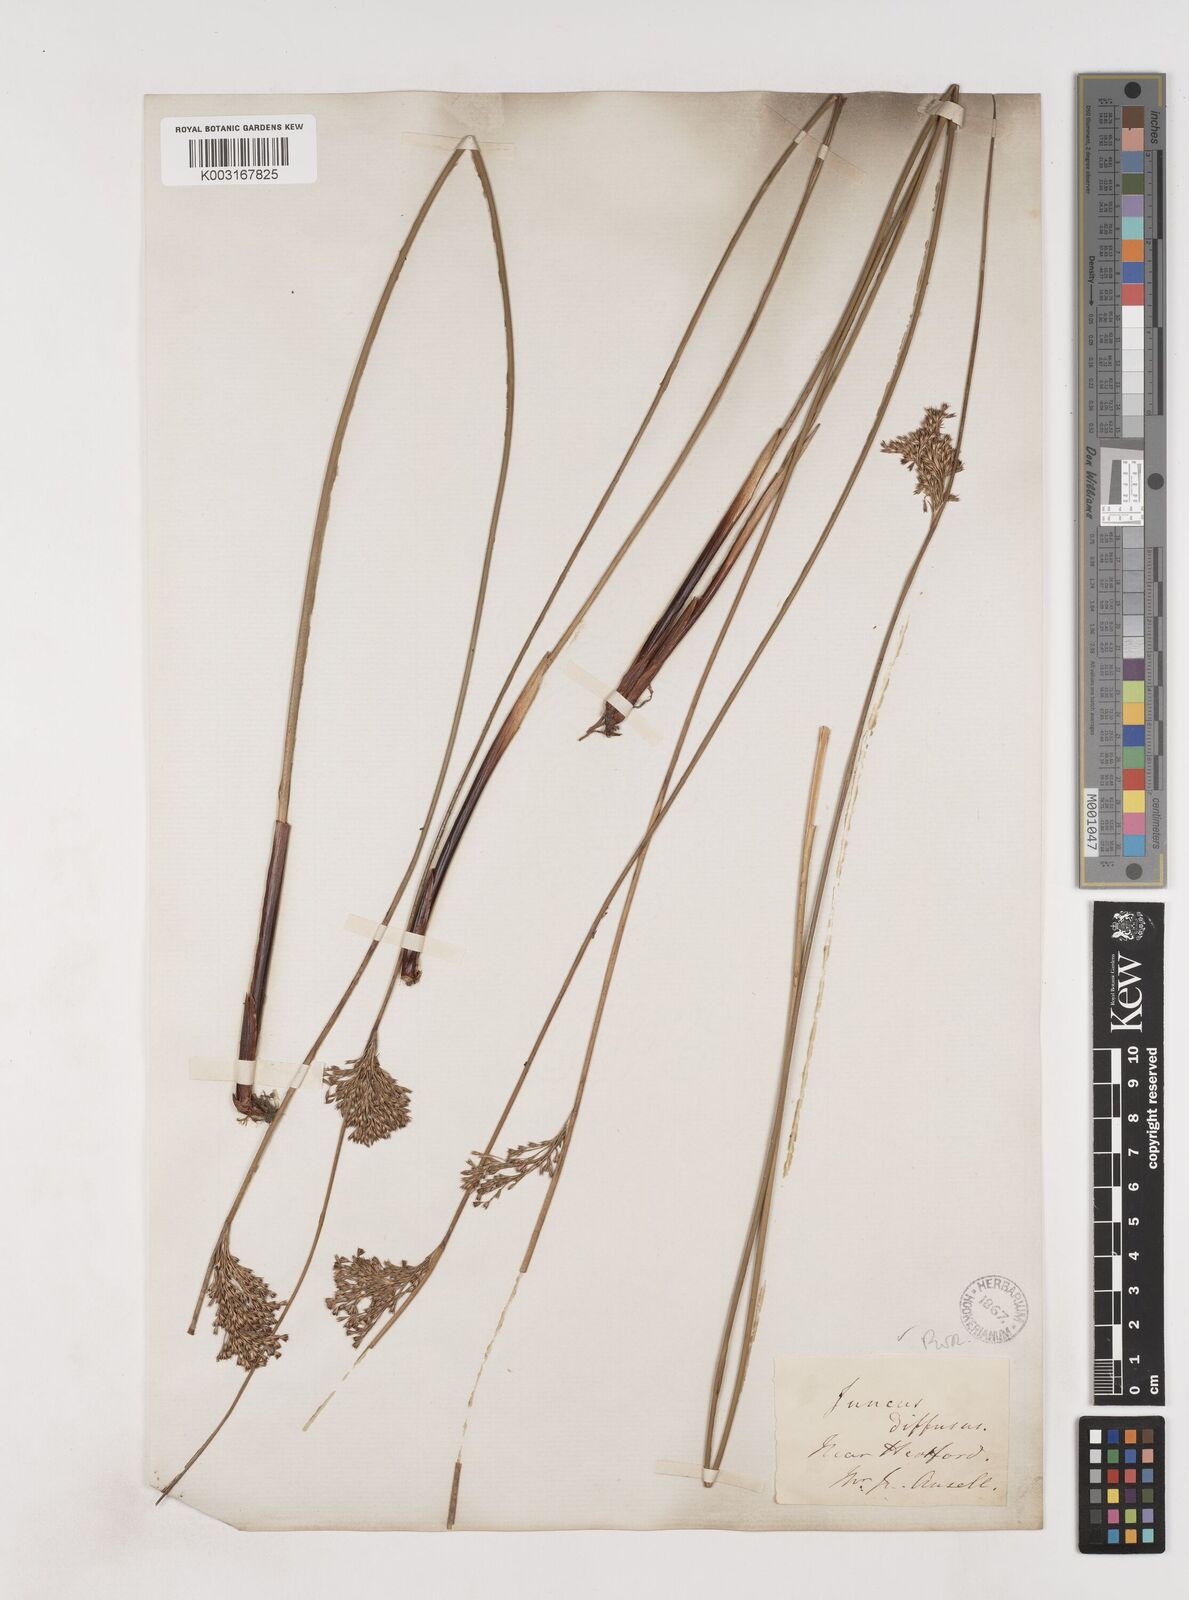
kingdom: Plantae
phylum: Tracheophyta
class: Liliopsida
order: Poales
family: Juncaceae
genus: Juncus
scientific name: Juncus effusus
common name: Soft rush
